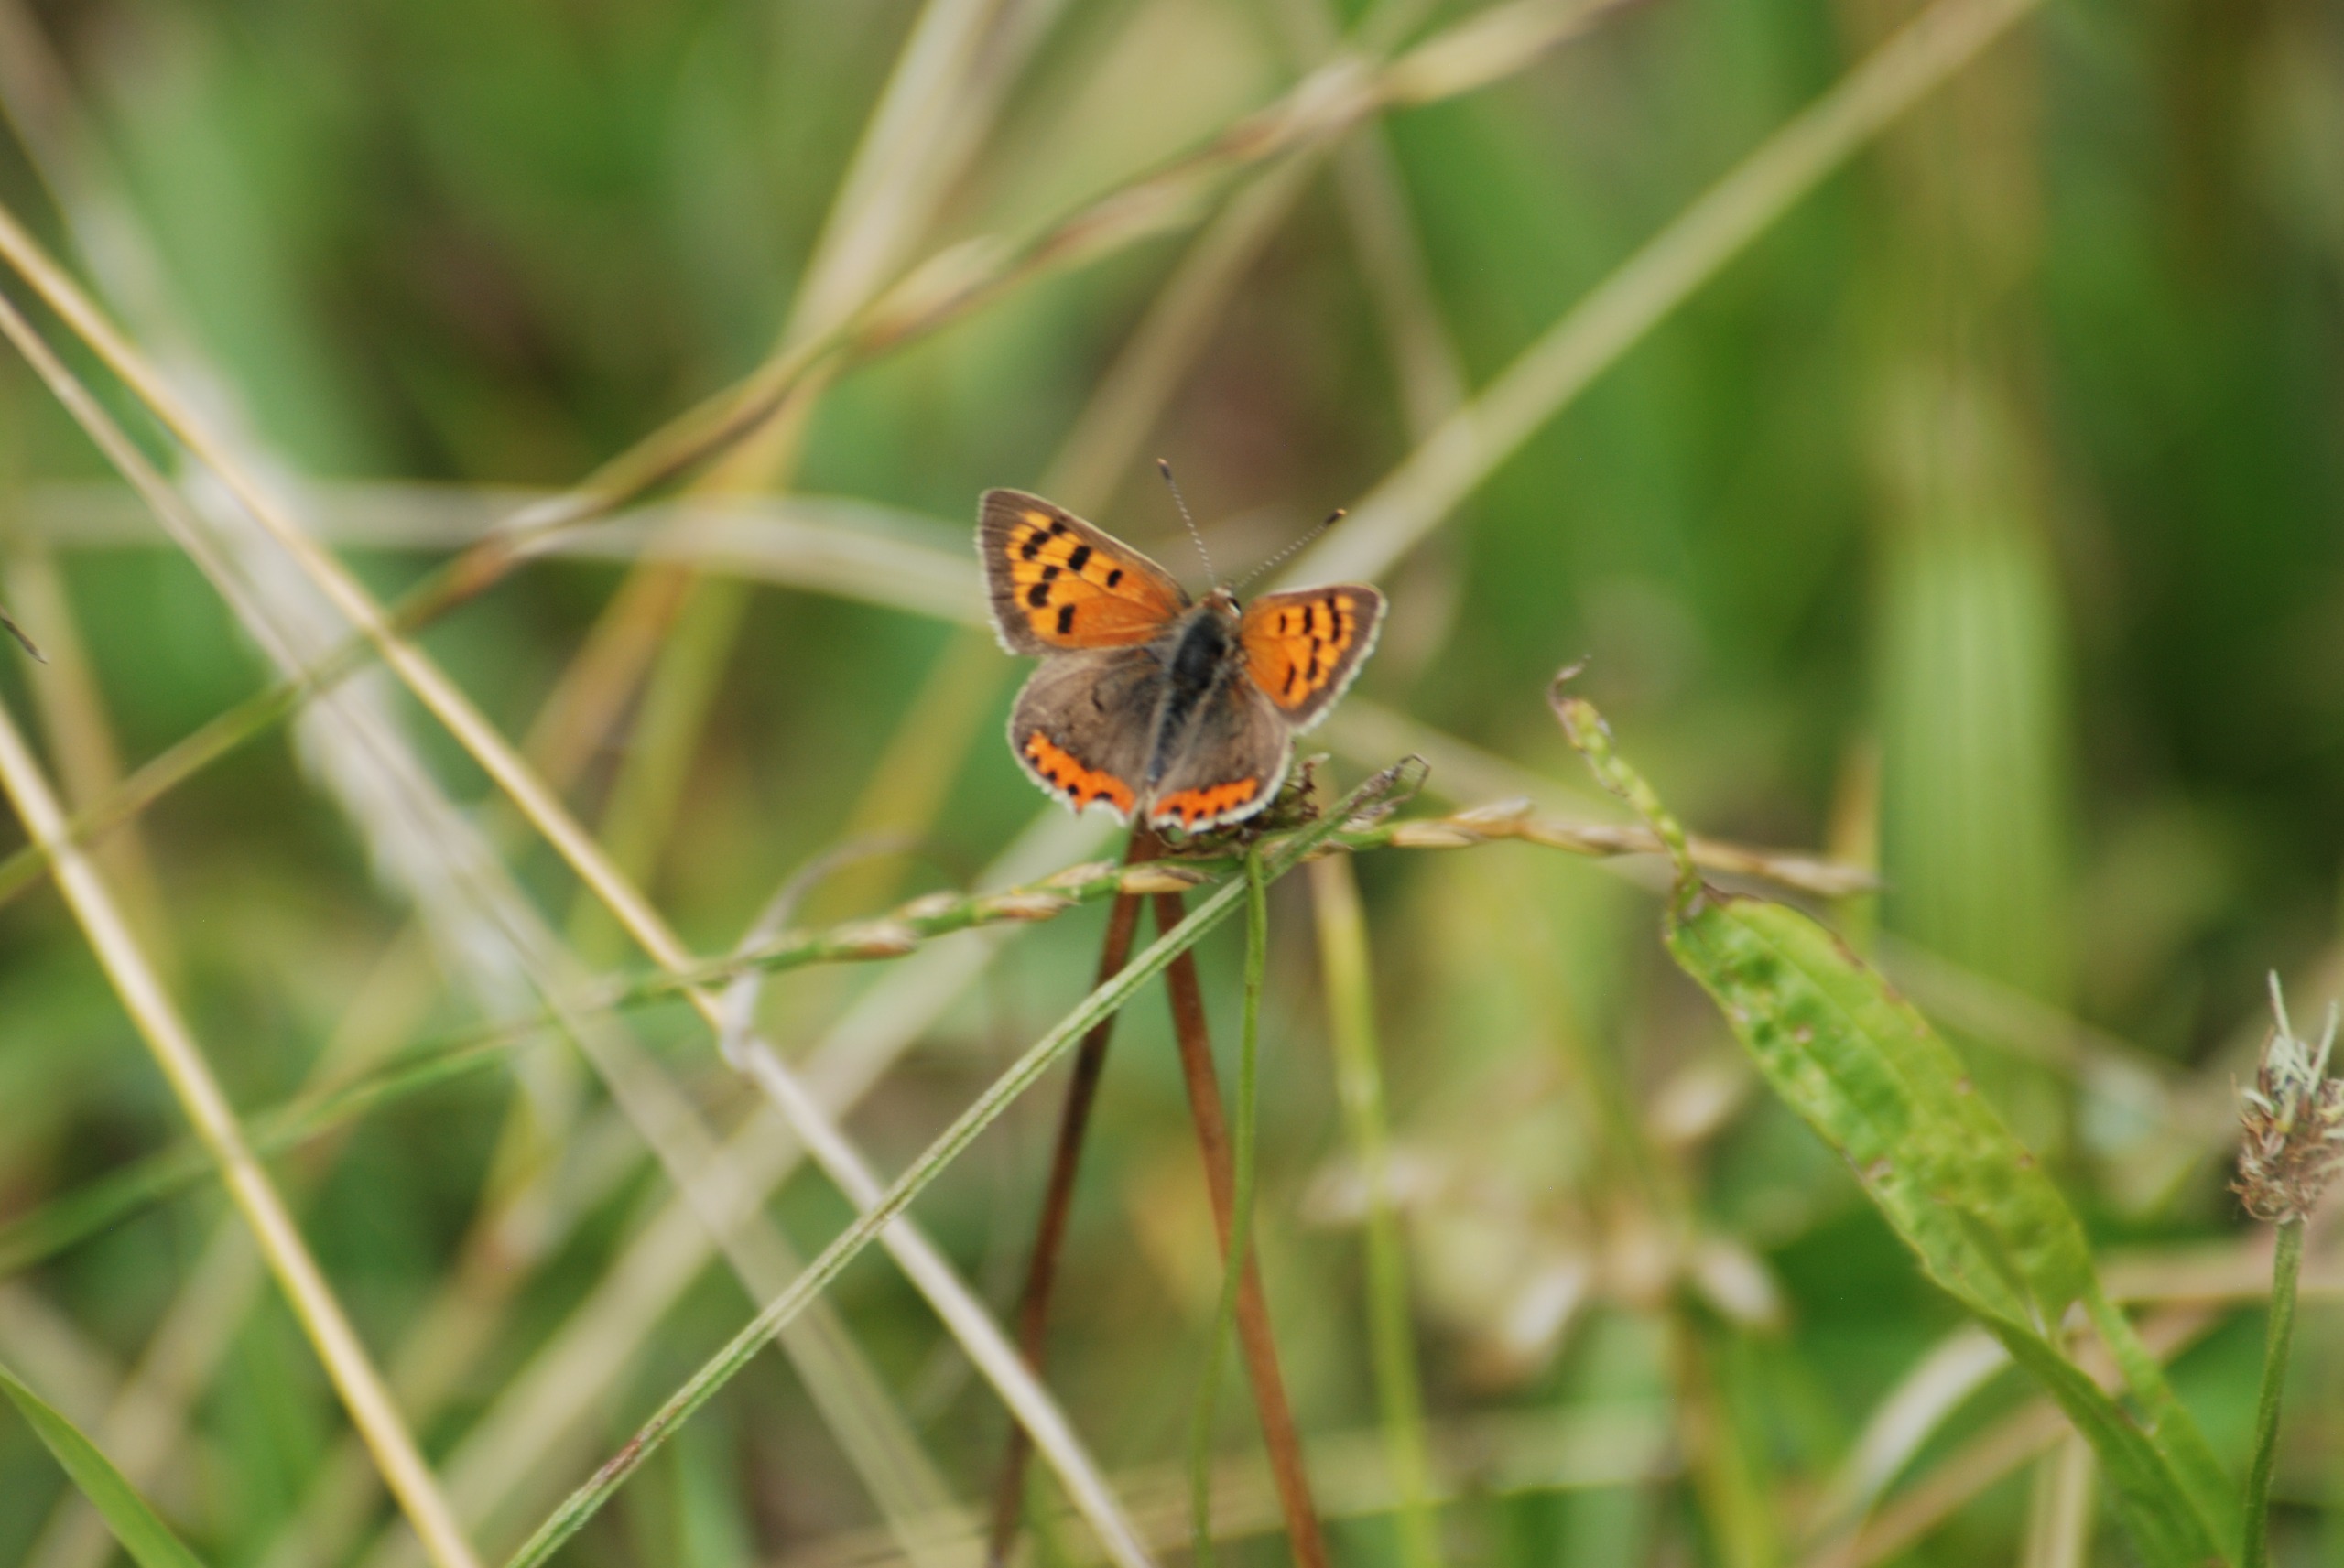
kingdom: Animalia
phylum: Arthropoda
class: Insecta
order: Lepidoptera
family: Lycaenidae
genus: Lycaena
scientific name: Lycaena phlaeas
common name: Lille ildfugl
